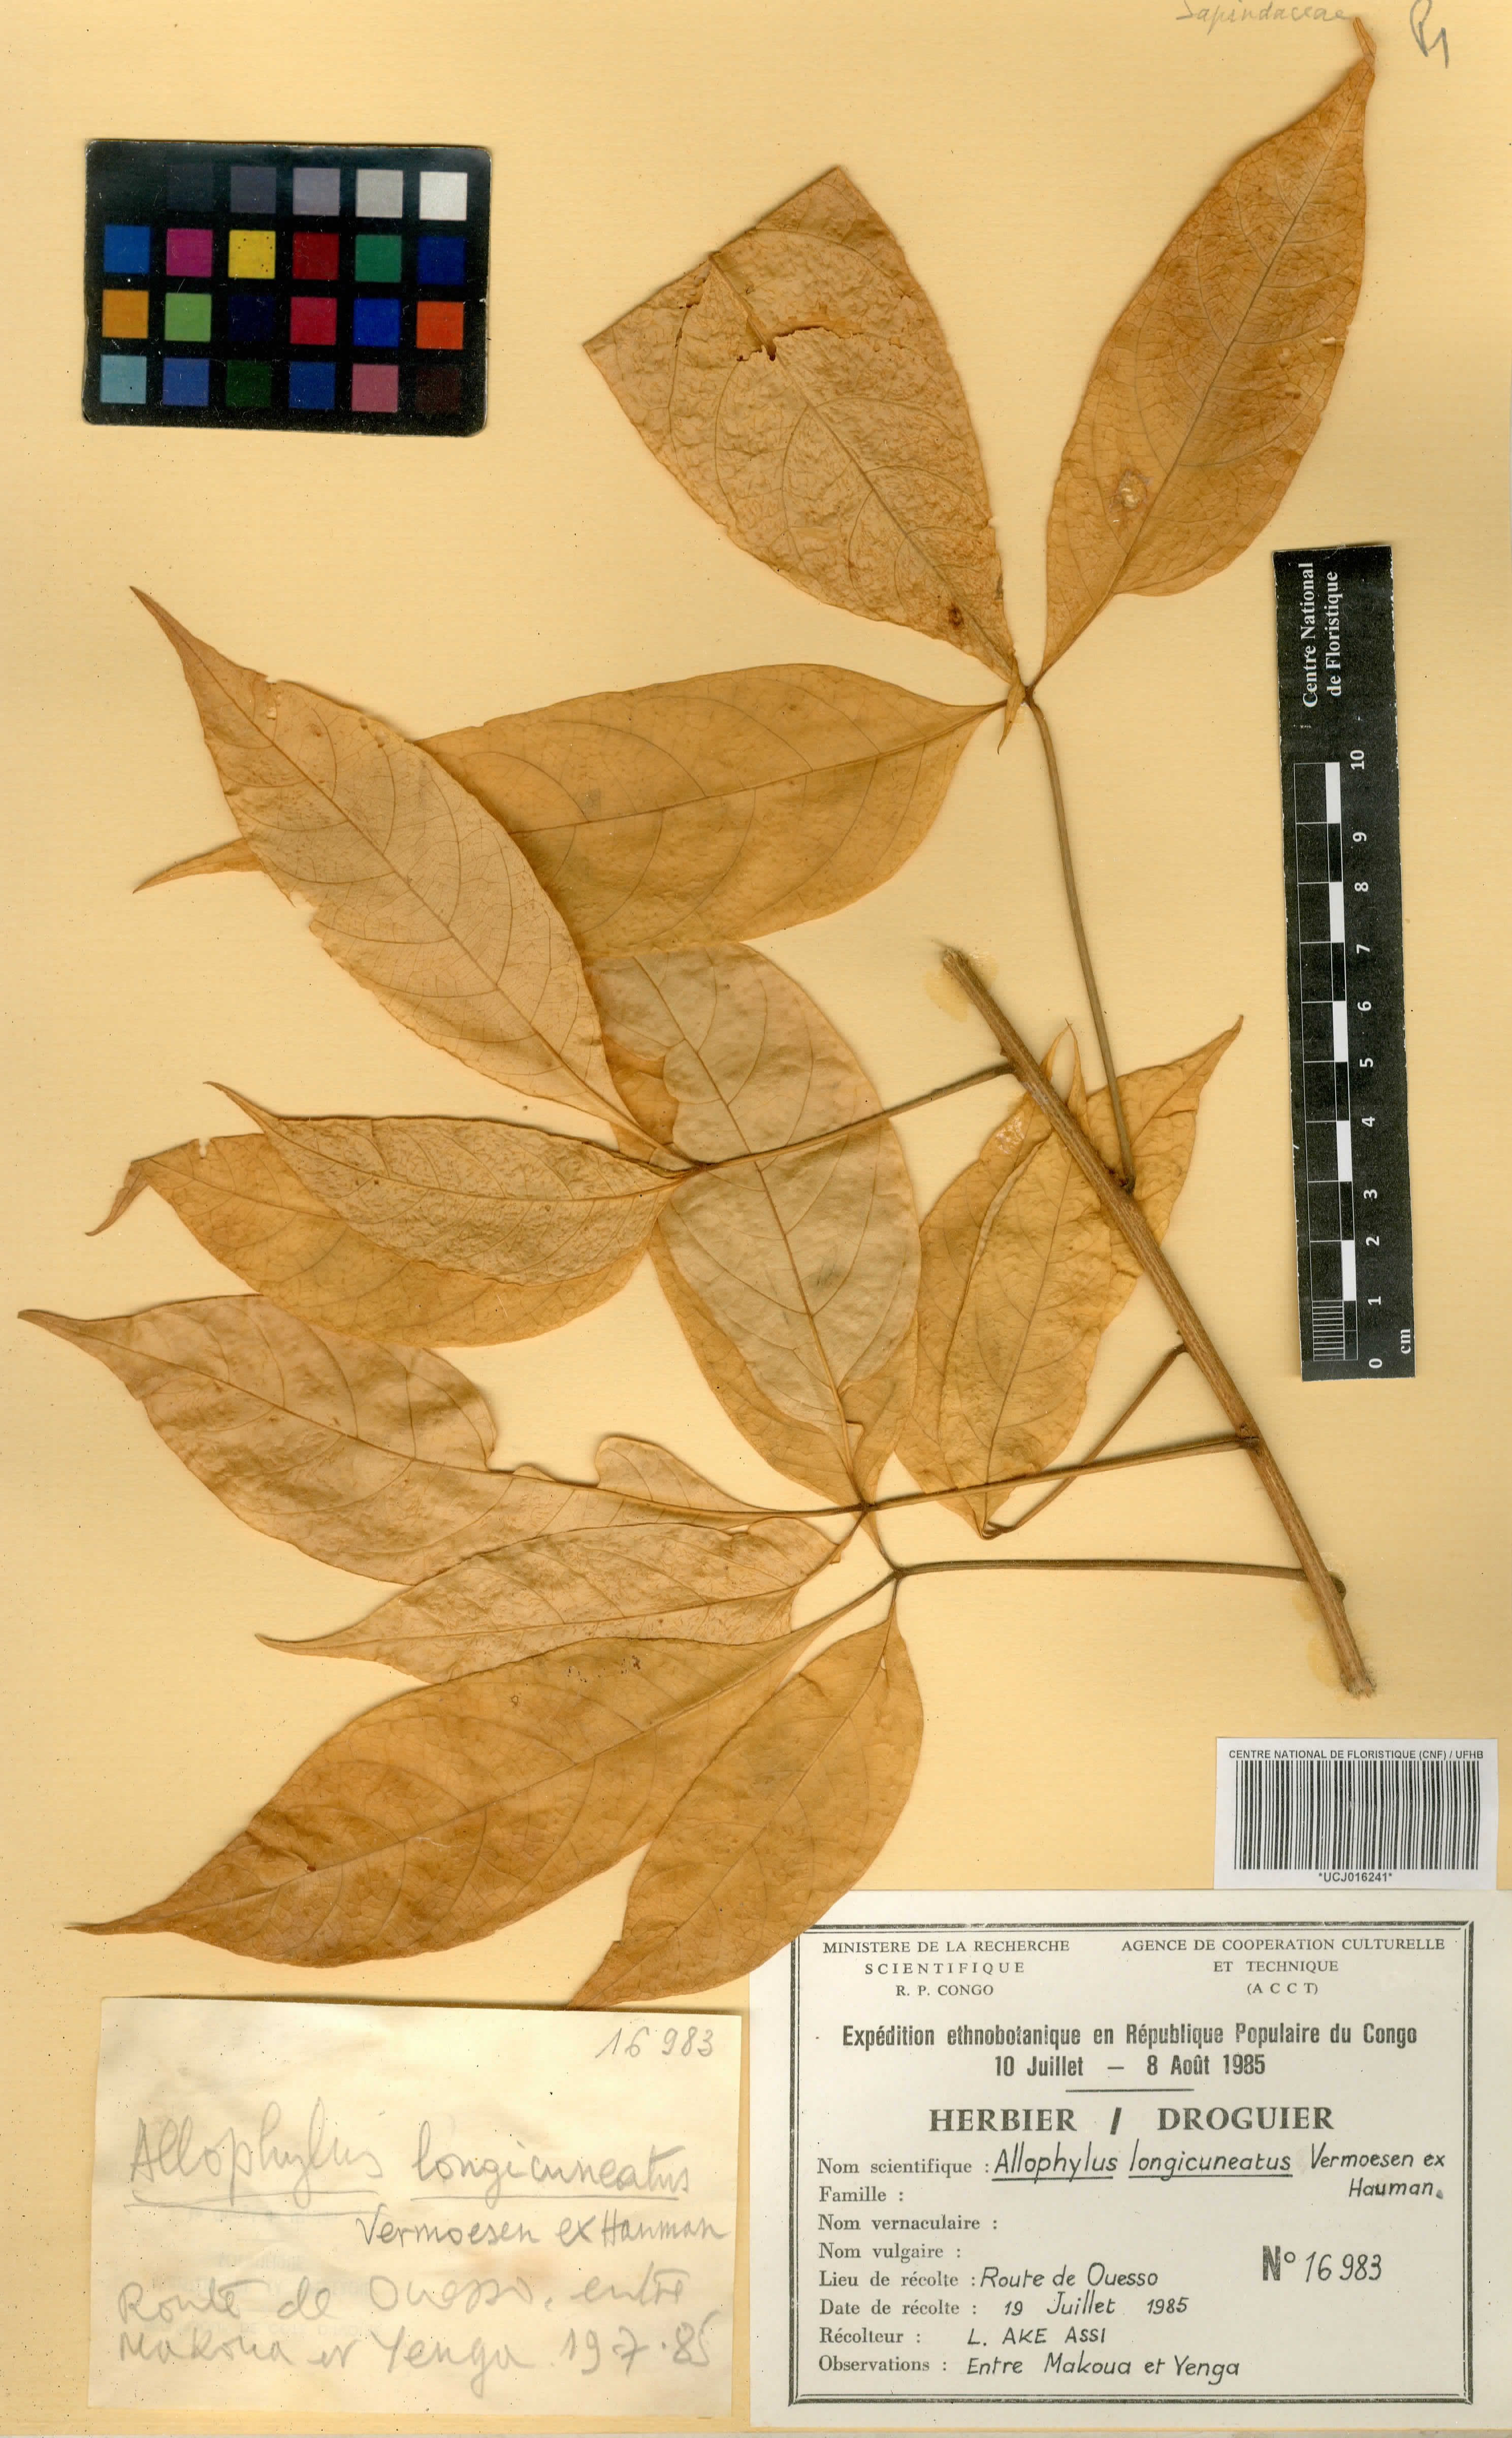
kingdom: Plantae
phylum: Tracheophyta
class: Magnoliopsida
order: Sapindales
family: Sapindaceae
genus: Allophylus
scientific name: Allophylus longicuneatus
